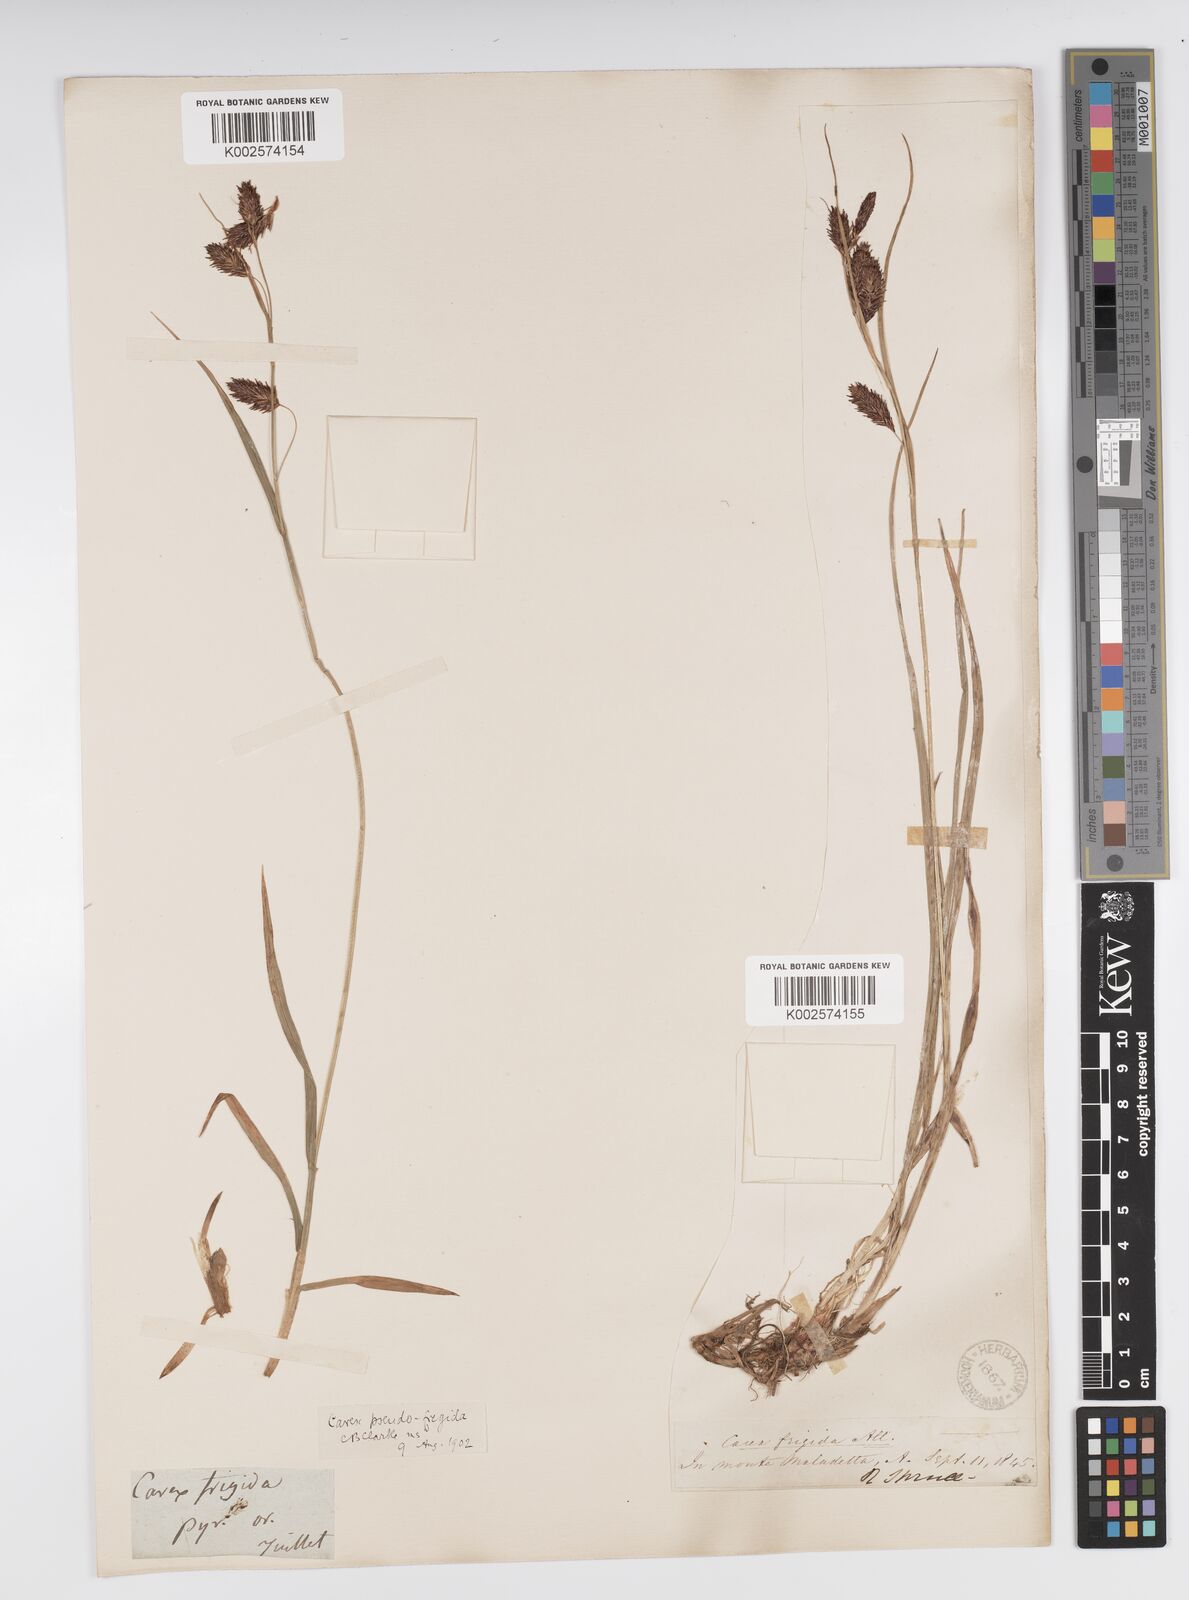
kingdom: Plantae
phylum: Tracheophyta
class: Liliopsida
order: Poales
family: Cyperaceae
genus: Carex
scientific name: Carex frigida
